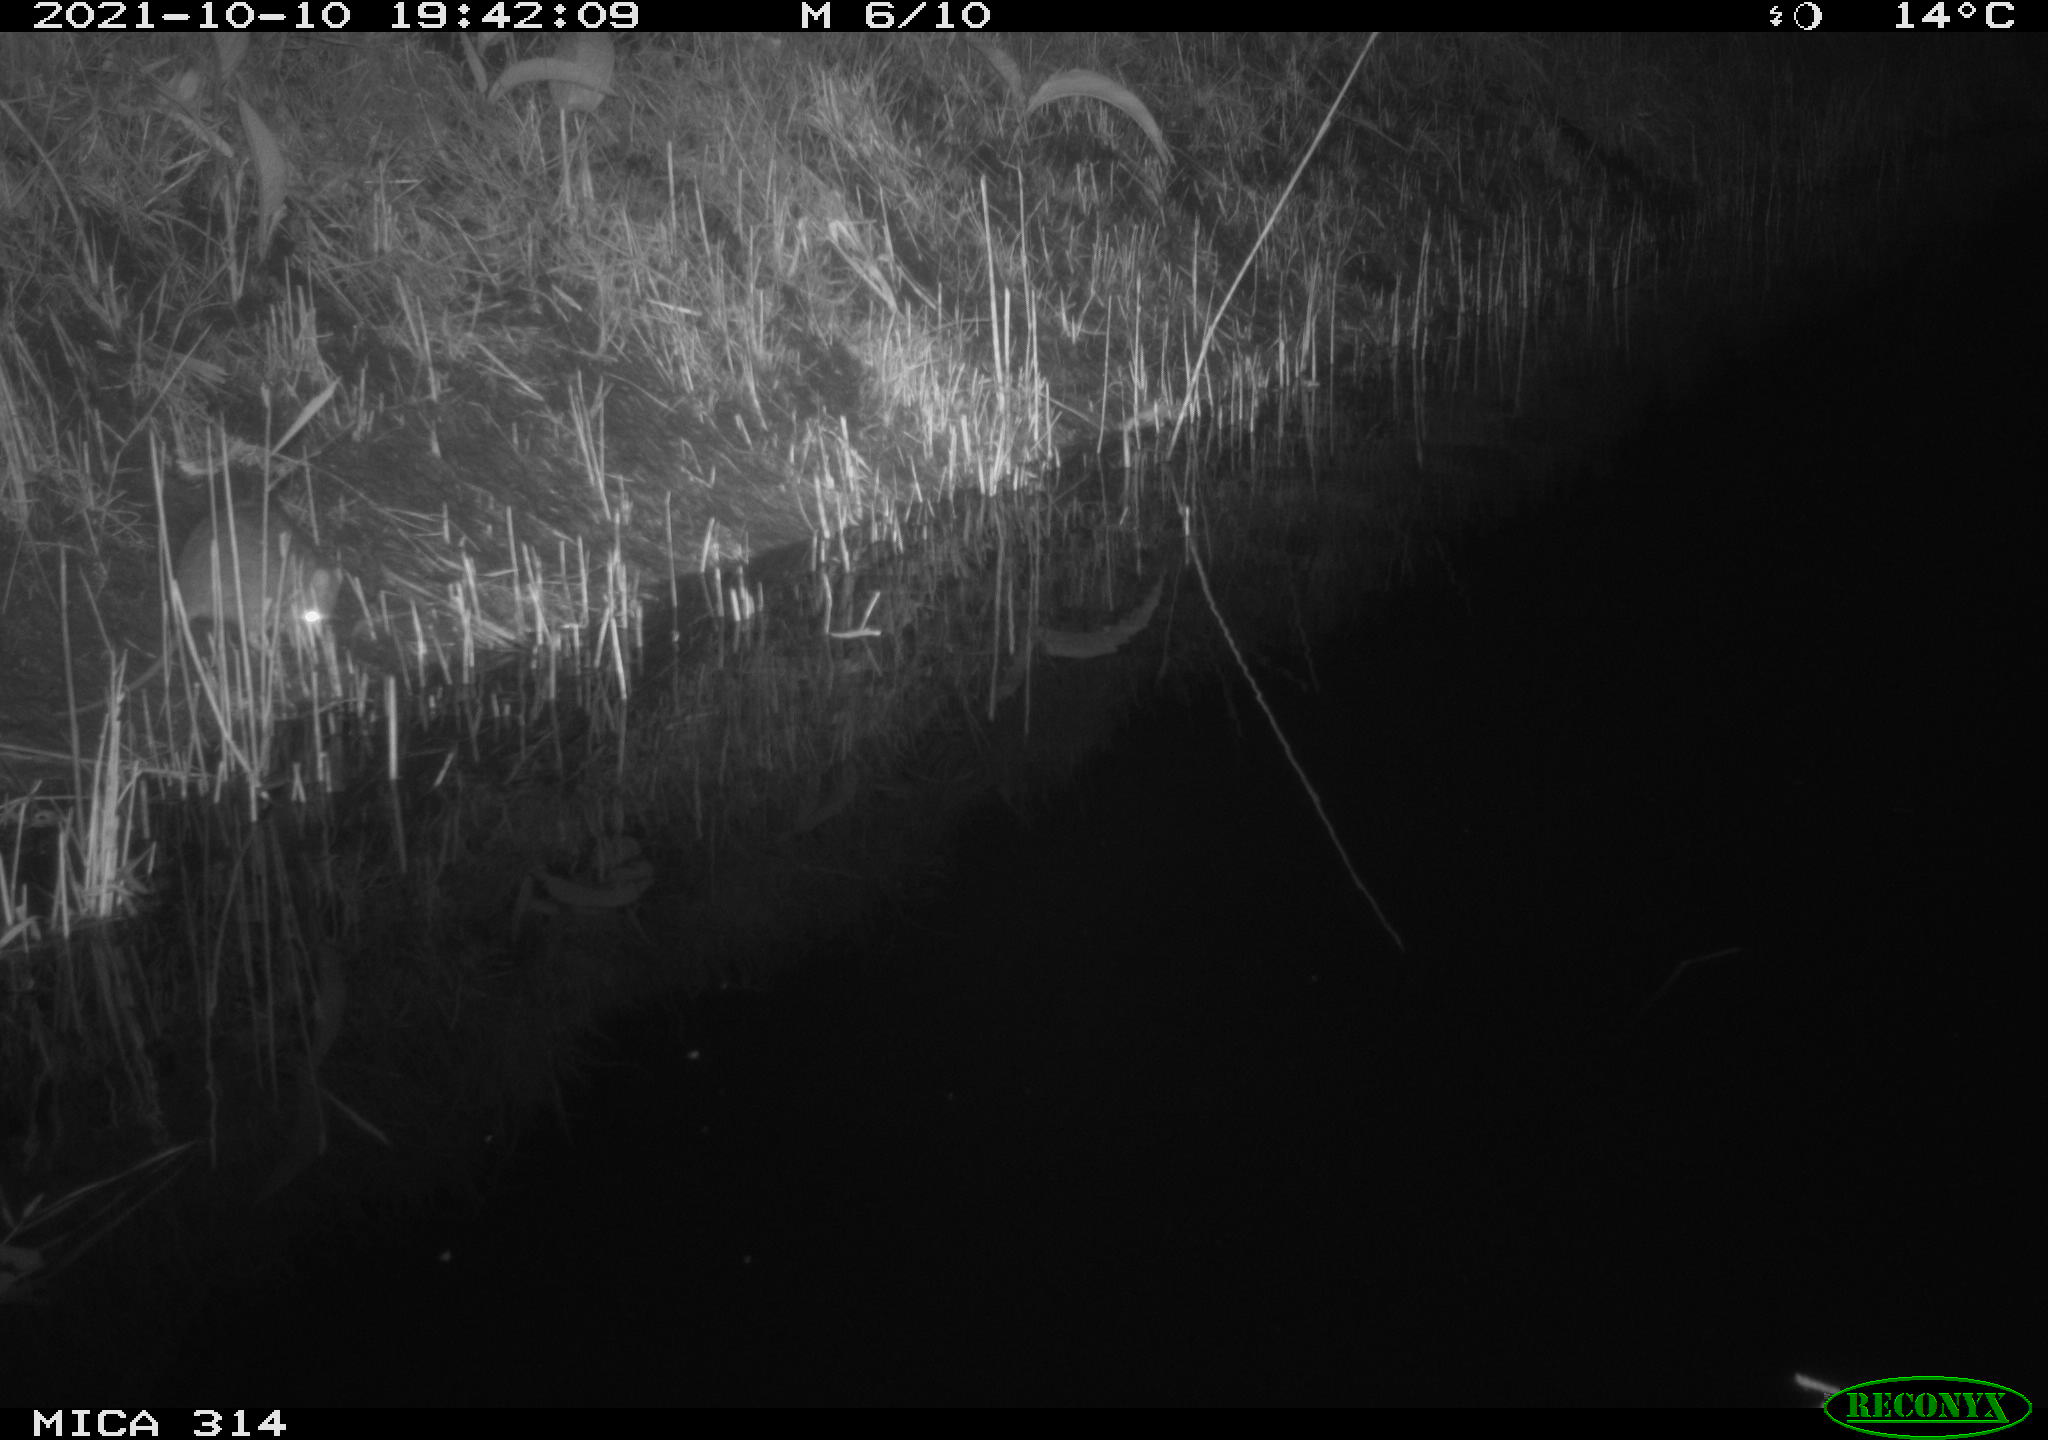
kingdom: Animalia
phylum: Chordata
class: Mammalia
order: Rodentia
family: Muridae
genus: Rattus
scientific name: Rattus norvegicus
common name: Brown rat
